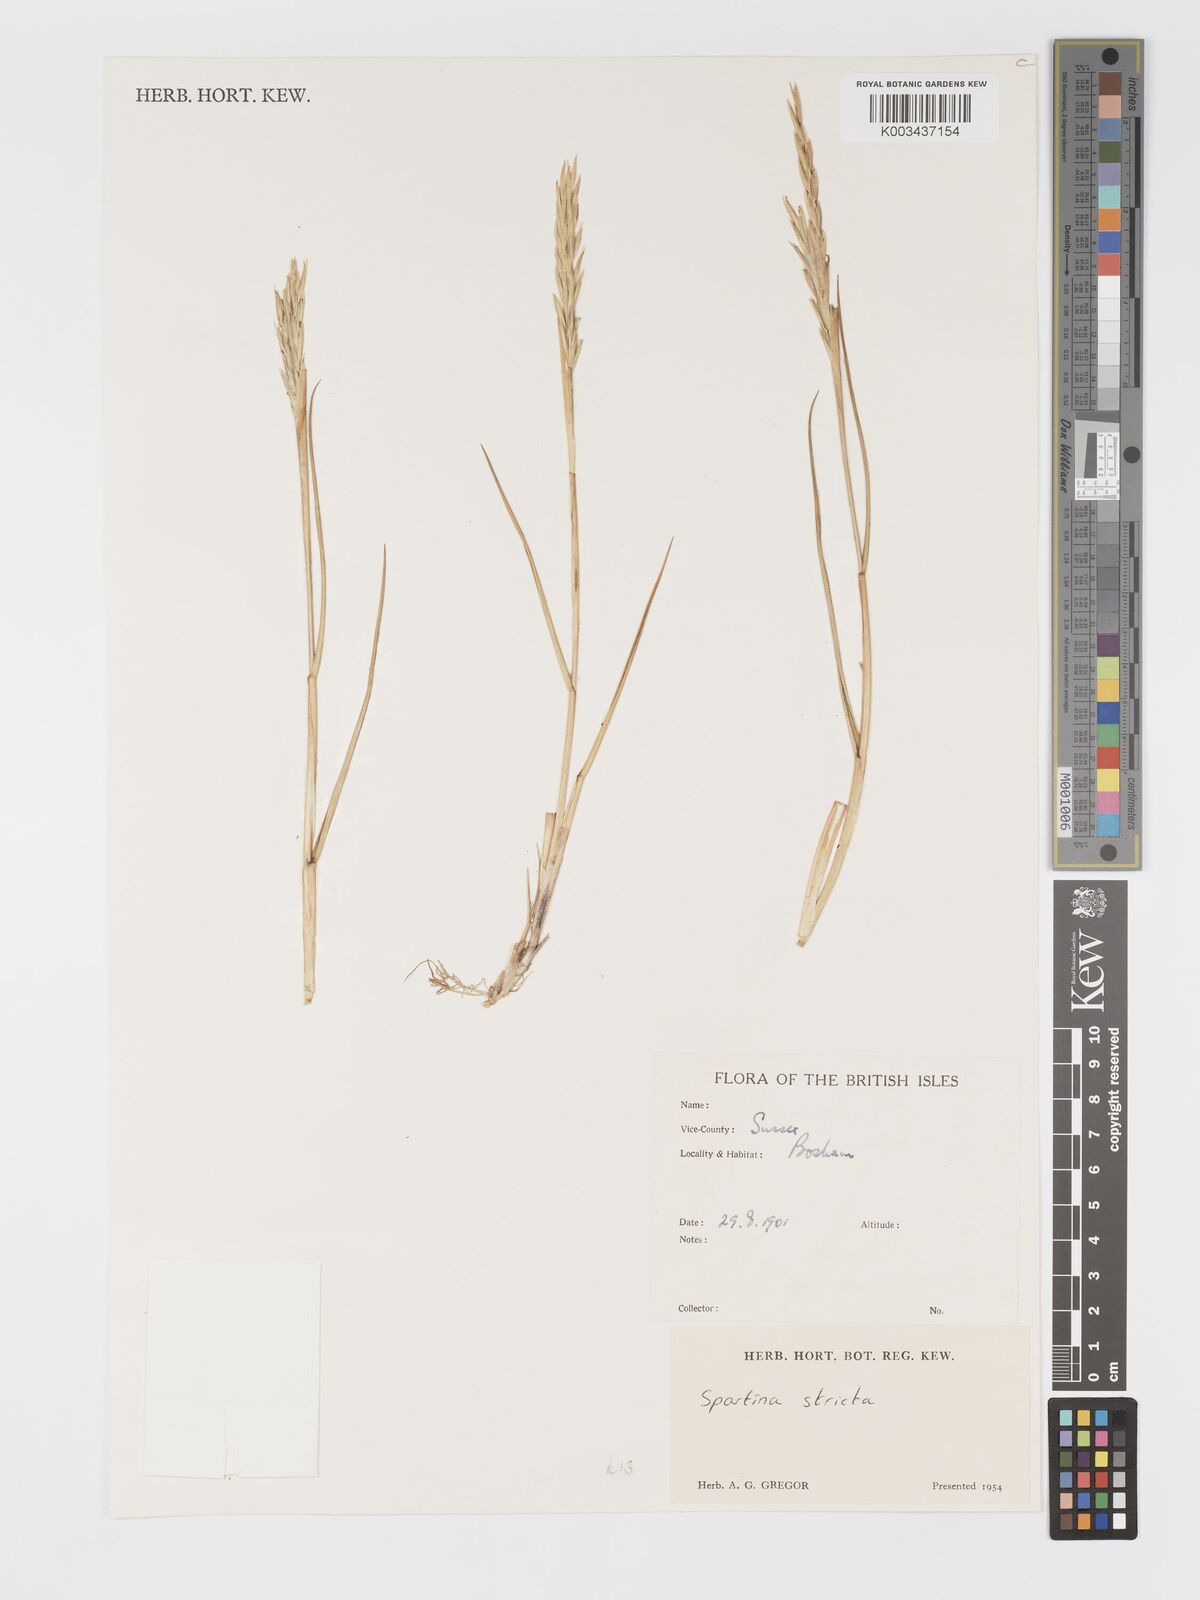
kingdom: Plantae
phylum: Tracheophyta
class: Liliopsida
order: Poales
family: Poaceae
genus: Sporobolus
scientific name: Sporobolus maritimus
